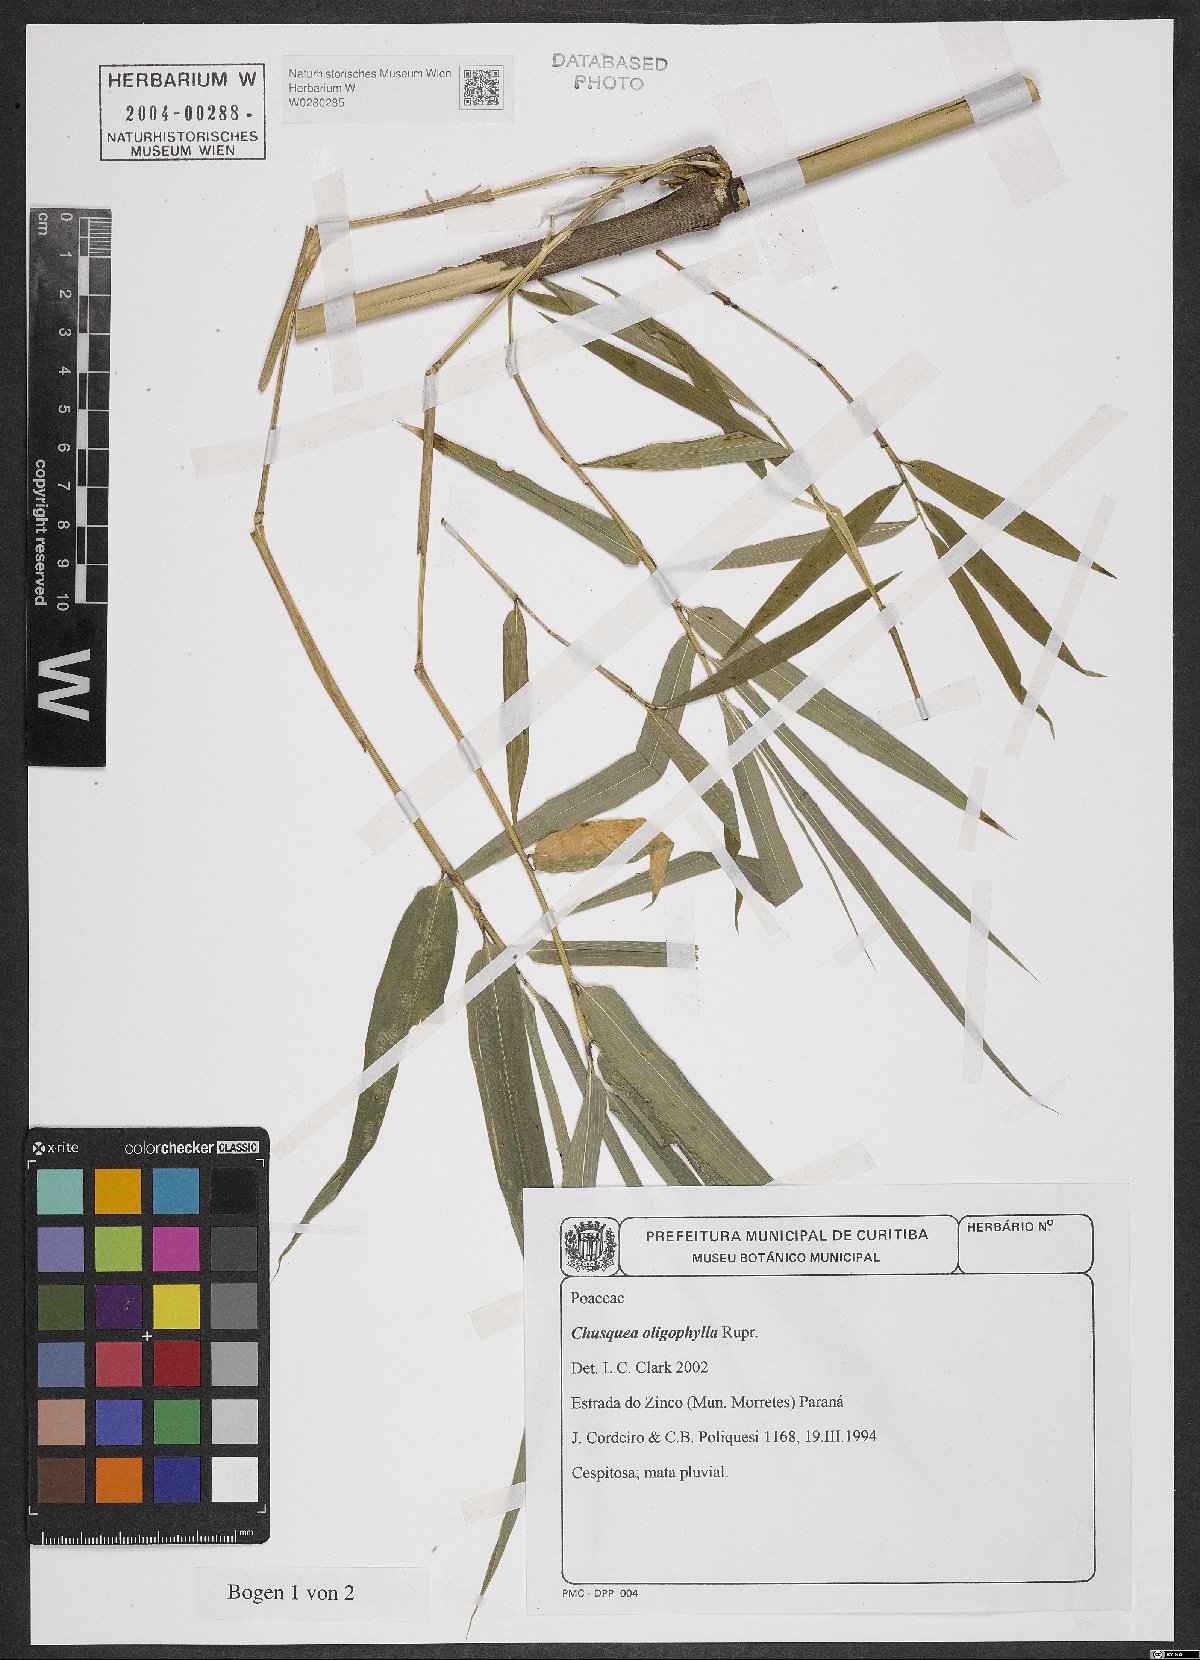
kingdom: Plantae
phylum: Tracheophyta
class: Liliopsida
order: Poales
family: Poaceae
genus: Chusquea
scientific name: Chusquea oligophylla
